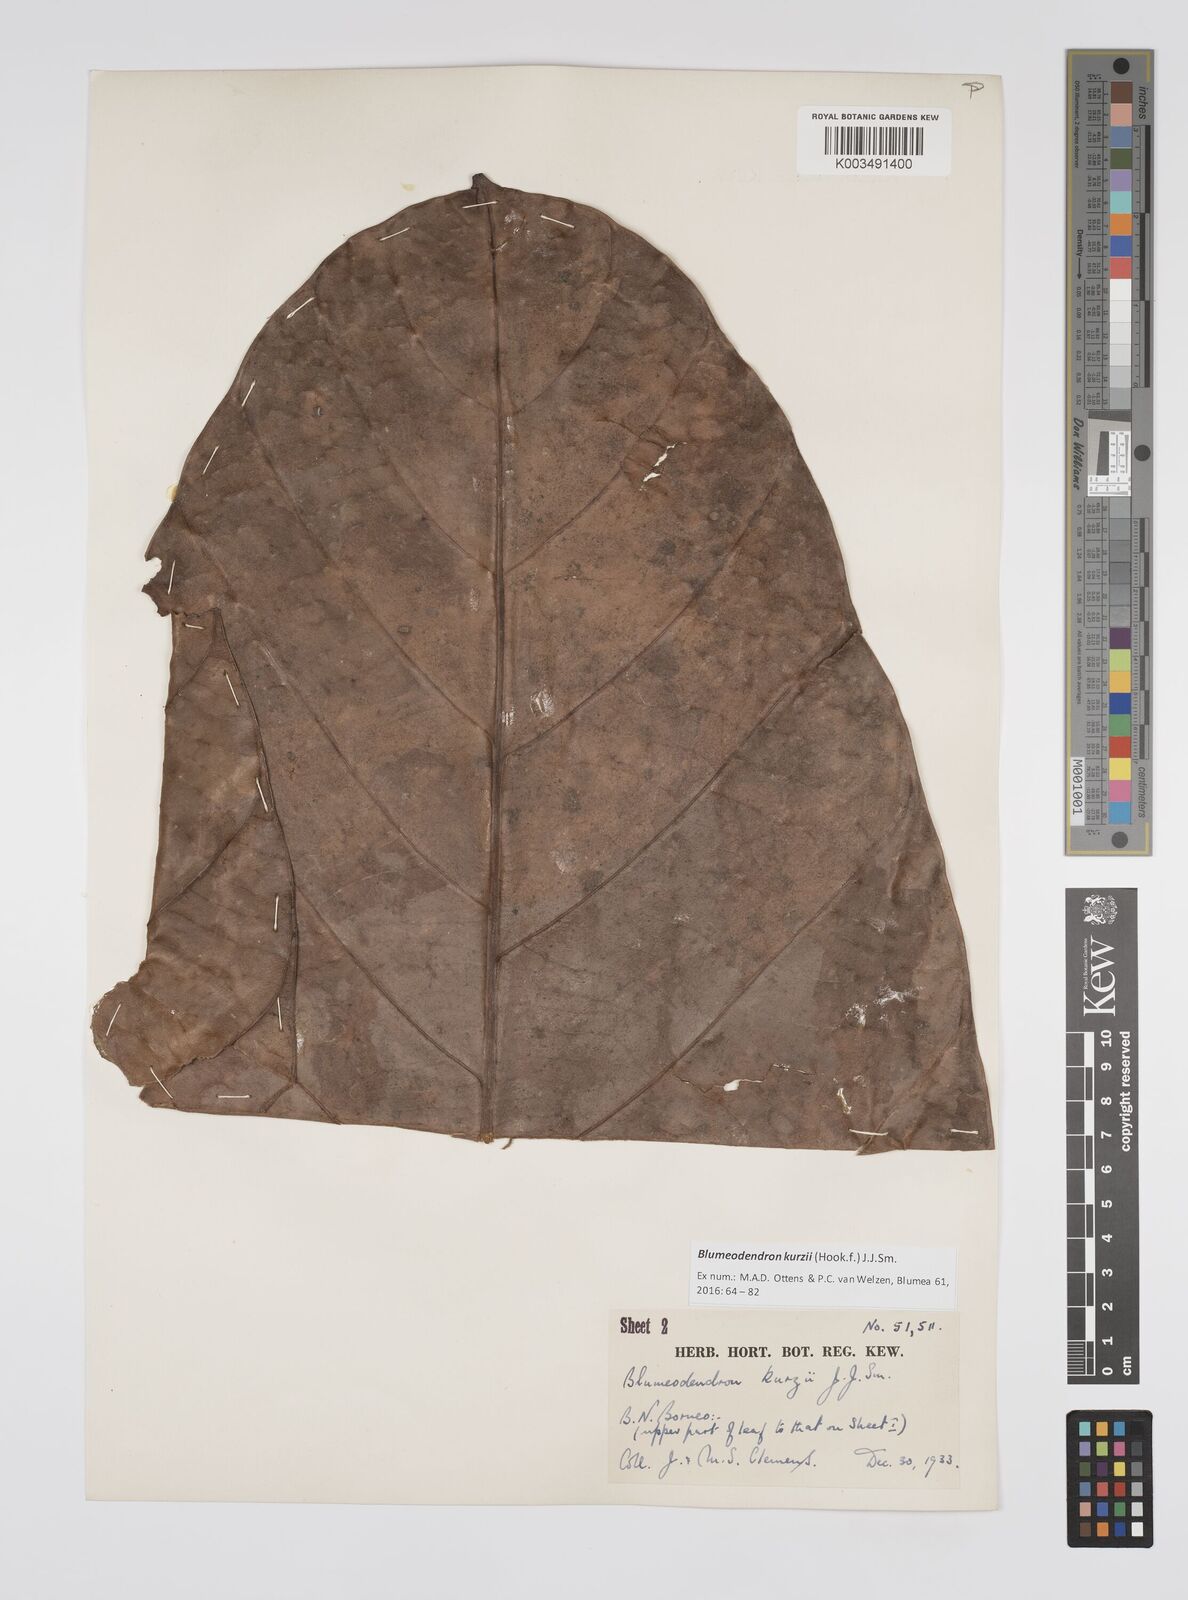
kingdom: Plantae
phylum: Tracheophyta
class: Magnoliopsida
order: Malpighiales
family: Euphorbiaceae
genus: Blumeodendron
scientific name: Blumeodendron kurzii
